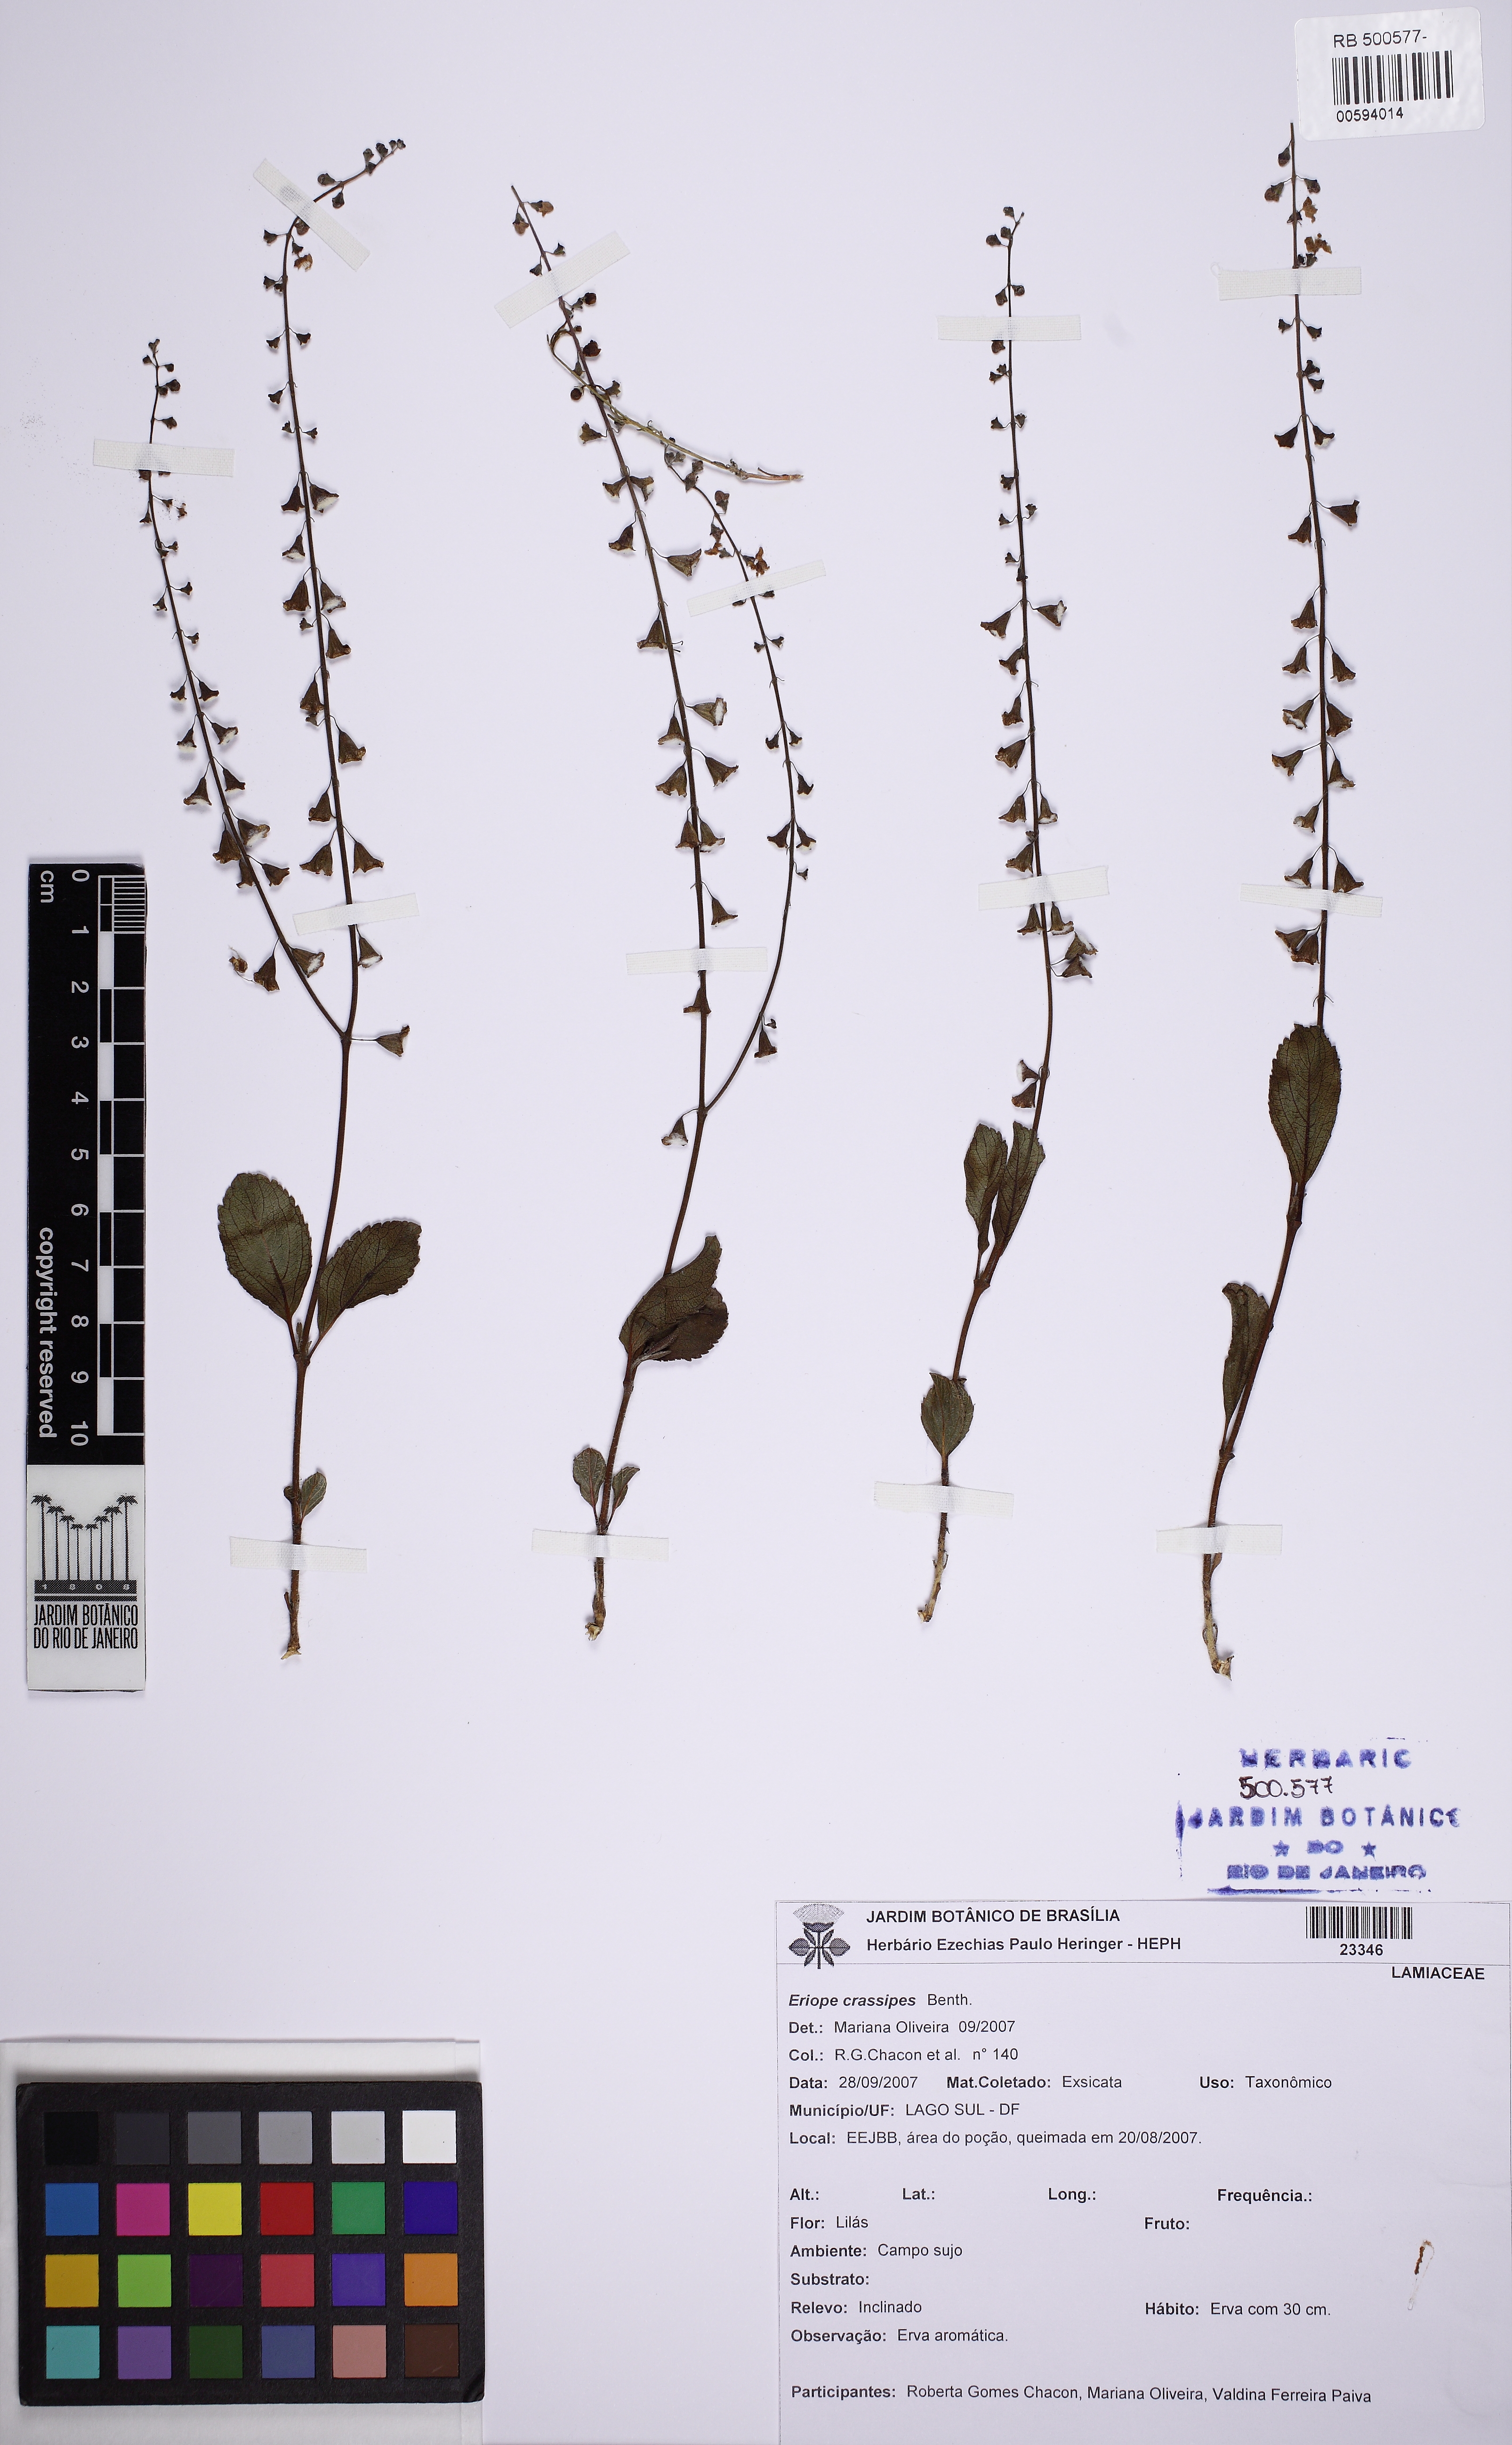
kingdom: Plantae
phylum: Tracheophyta
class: Magnoliopsida
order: Lamiales
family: Lamiaceae
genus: Eriope
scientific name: Eriope crassipes
